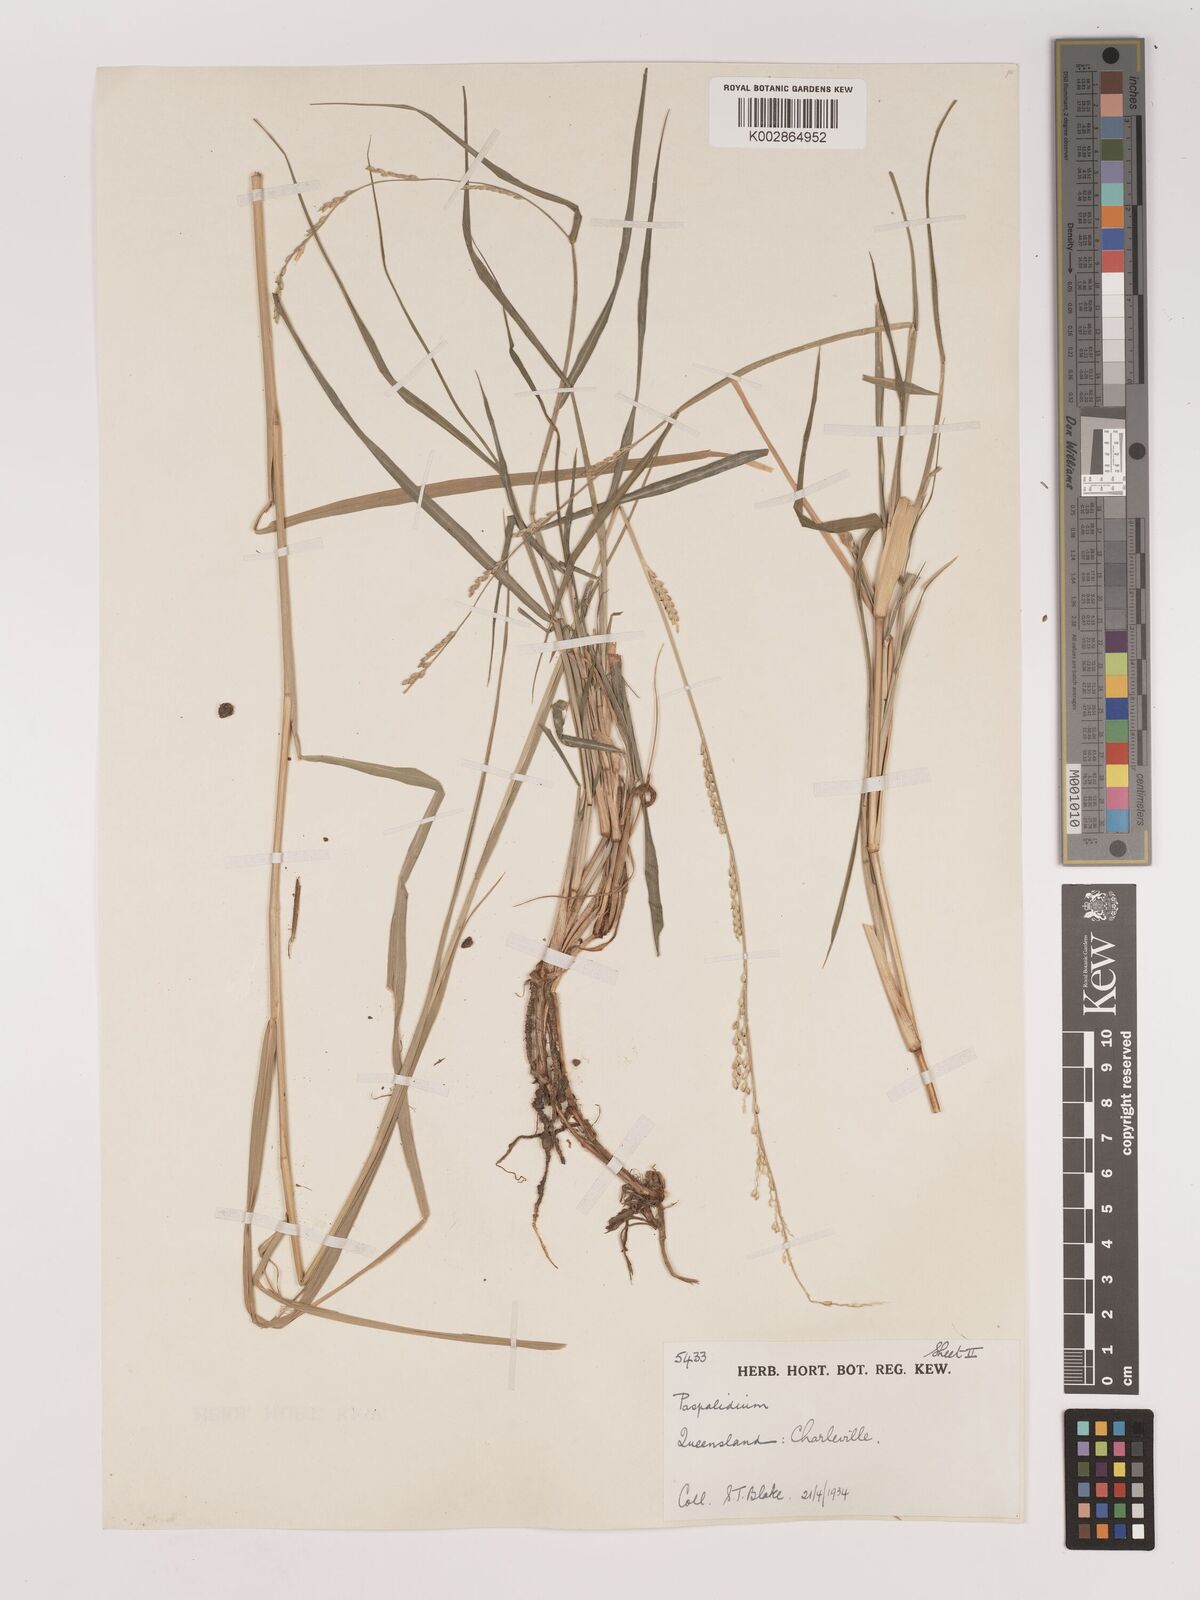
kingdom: Plantae
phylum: Tracheophyta
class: Liliopsida
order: Poales
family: Poaceae
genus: Setaria
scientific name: Setaria
